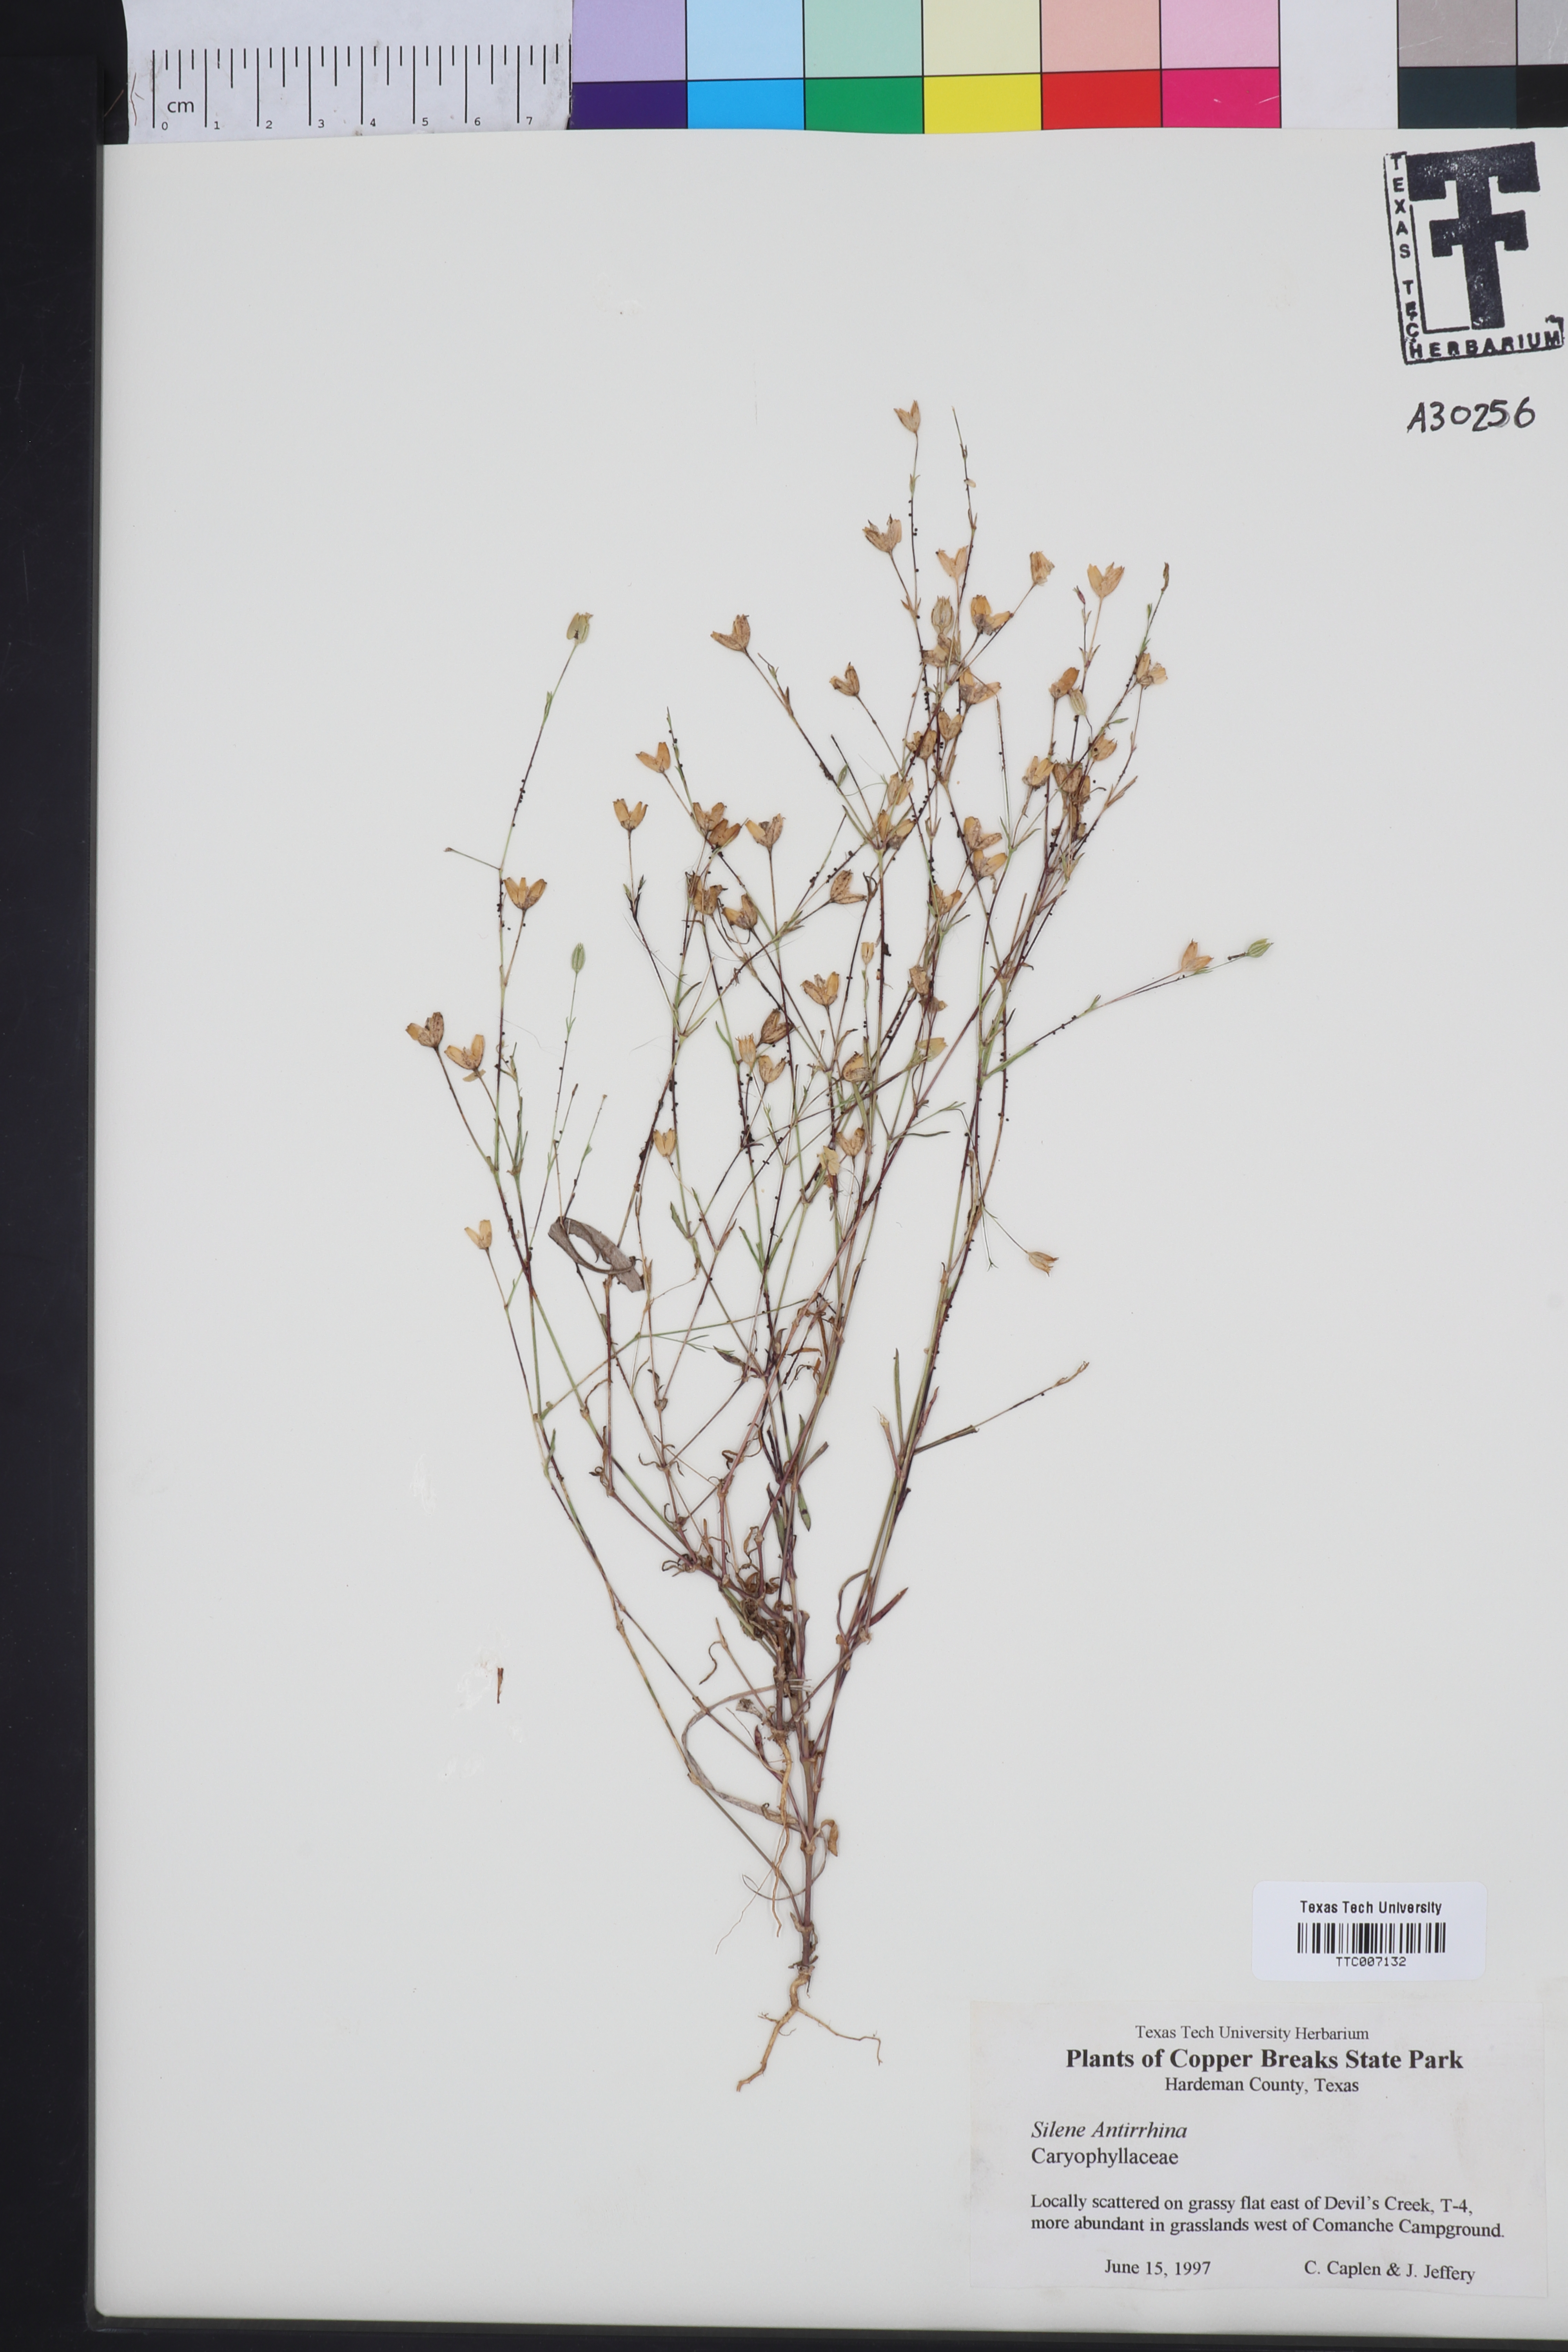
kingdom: Plantae
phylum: Tracheophyta
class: Magnoliopsida
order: Caryophyllales
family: Caryophyllaceae
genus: Silene
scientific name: Silene antirrhina
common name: Sleepy catchfly
